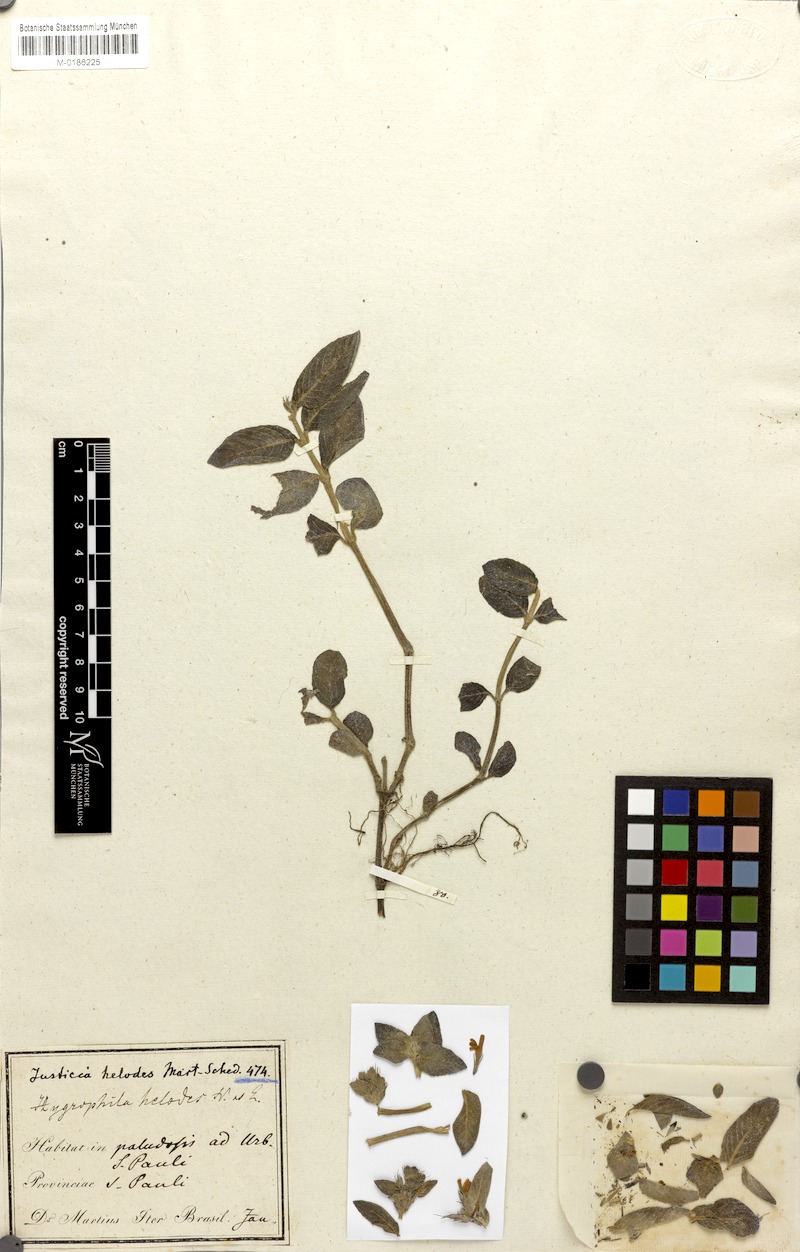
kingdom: Plantae
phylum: Tracheophyta
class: Magnoliopsida
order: Lamiales
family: Acanthaceae
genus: Hygrophila
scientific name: Hygrophila costata
